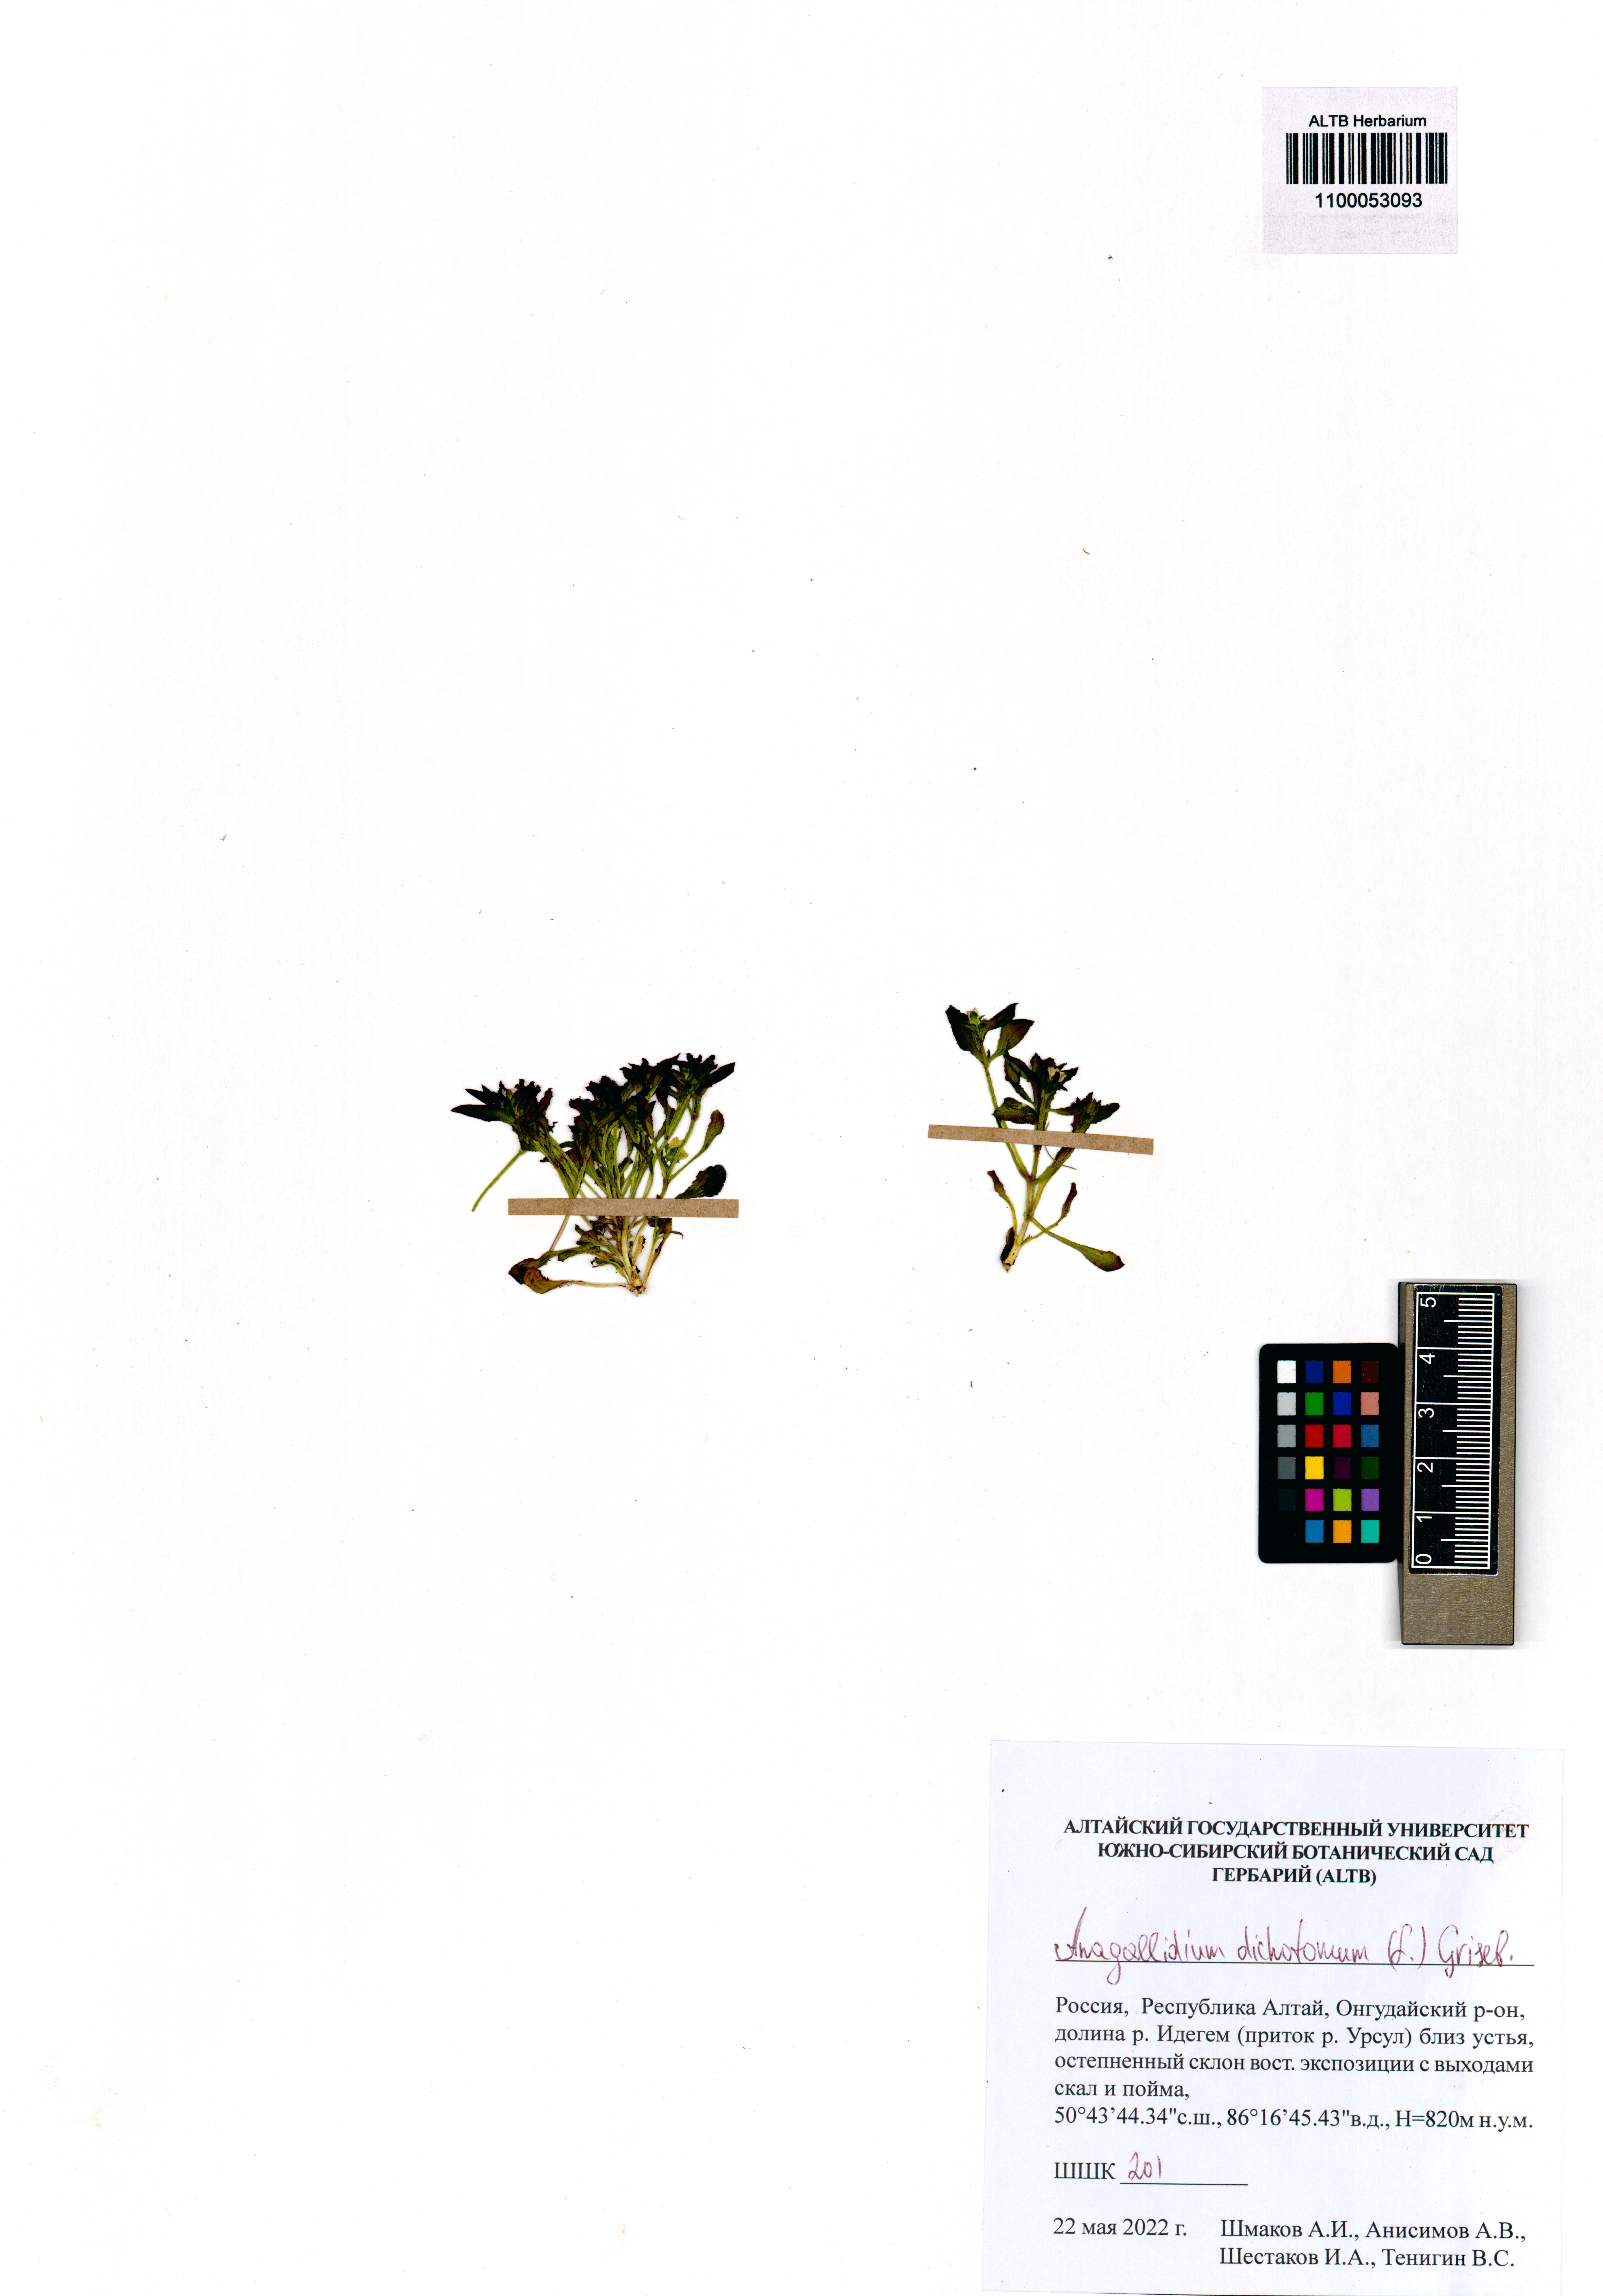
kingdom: Plantae
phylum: Tracheophyta
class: Magnoliopsida
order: Gentianales
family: Gentianaceae
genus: Swertia
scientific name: Swertia dichotoma
